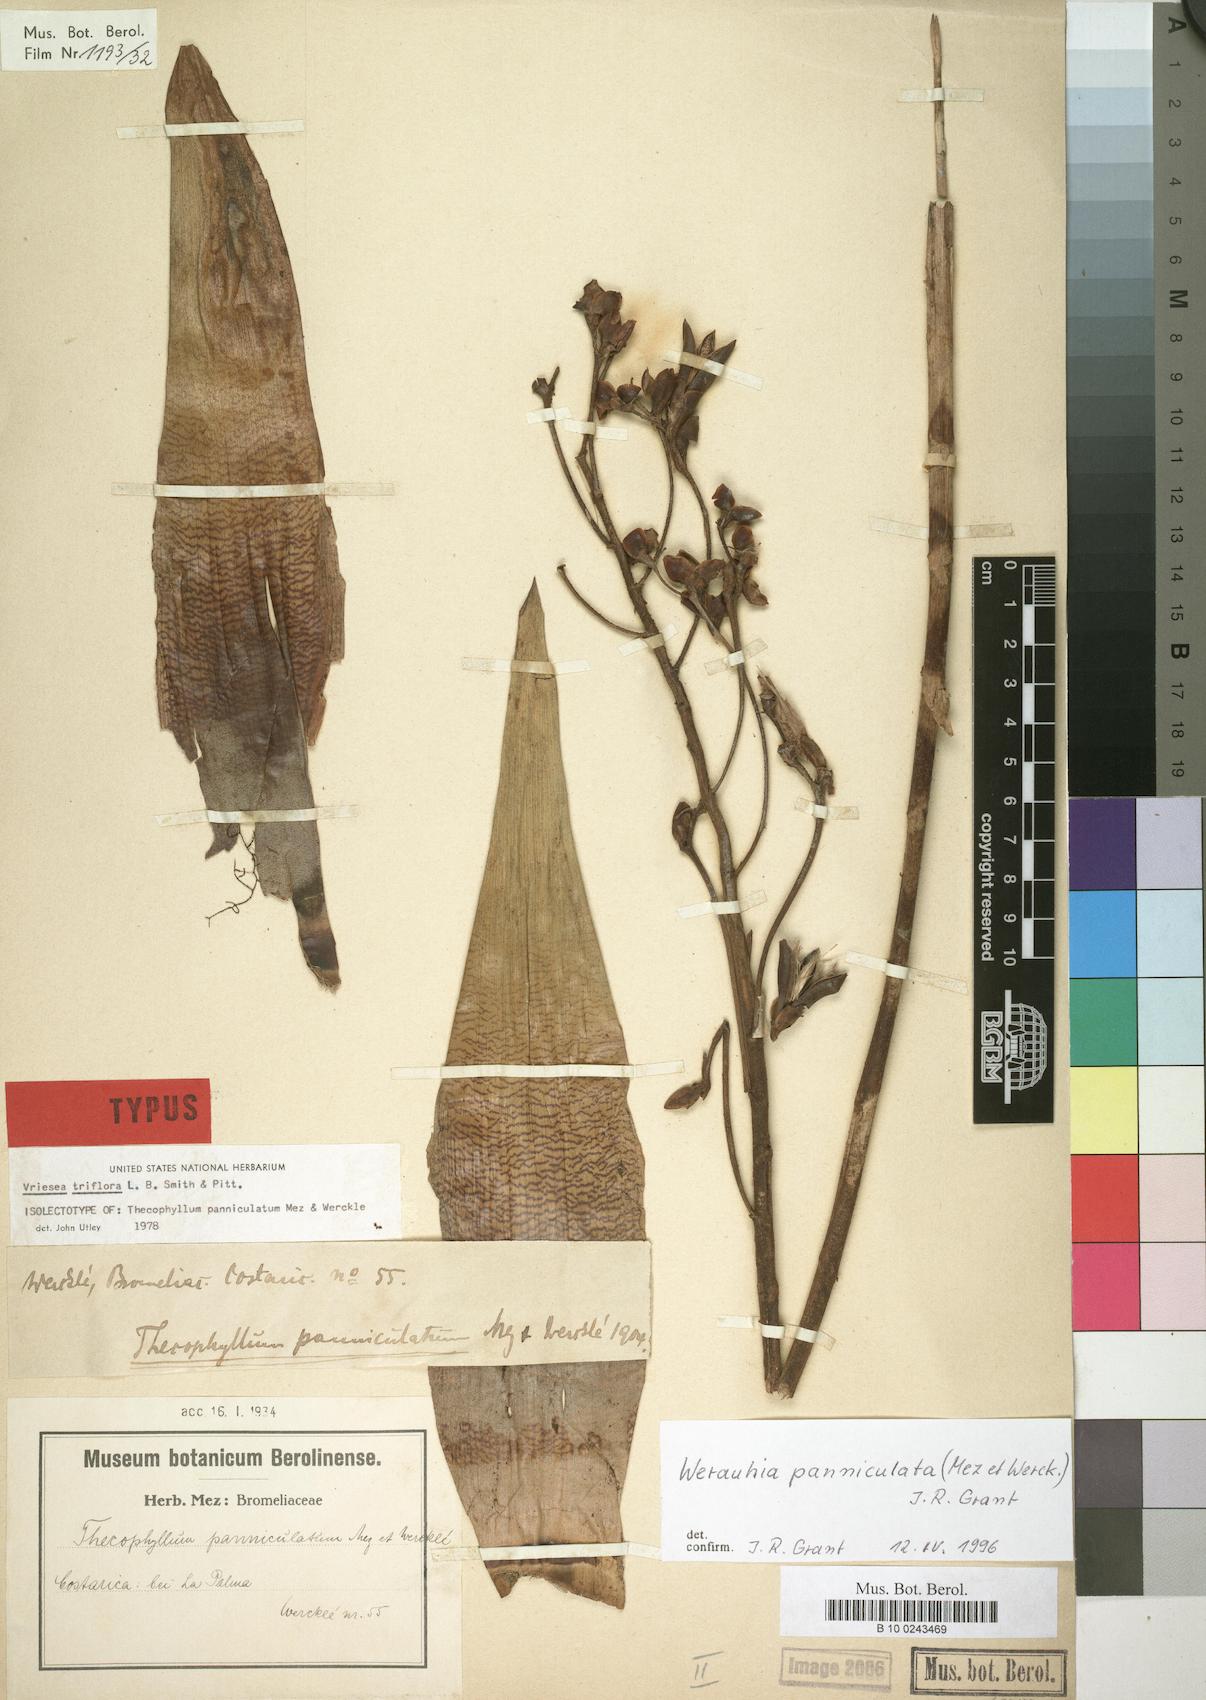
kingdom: Plantae
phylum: Tracheophyta
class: Liliopsida
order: Poales
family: Bromeliaceae
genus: Werauhia
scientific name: Werauhia paniculata
